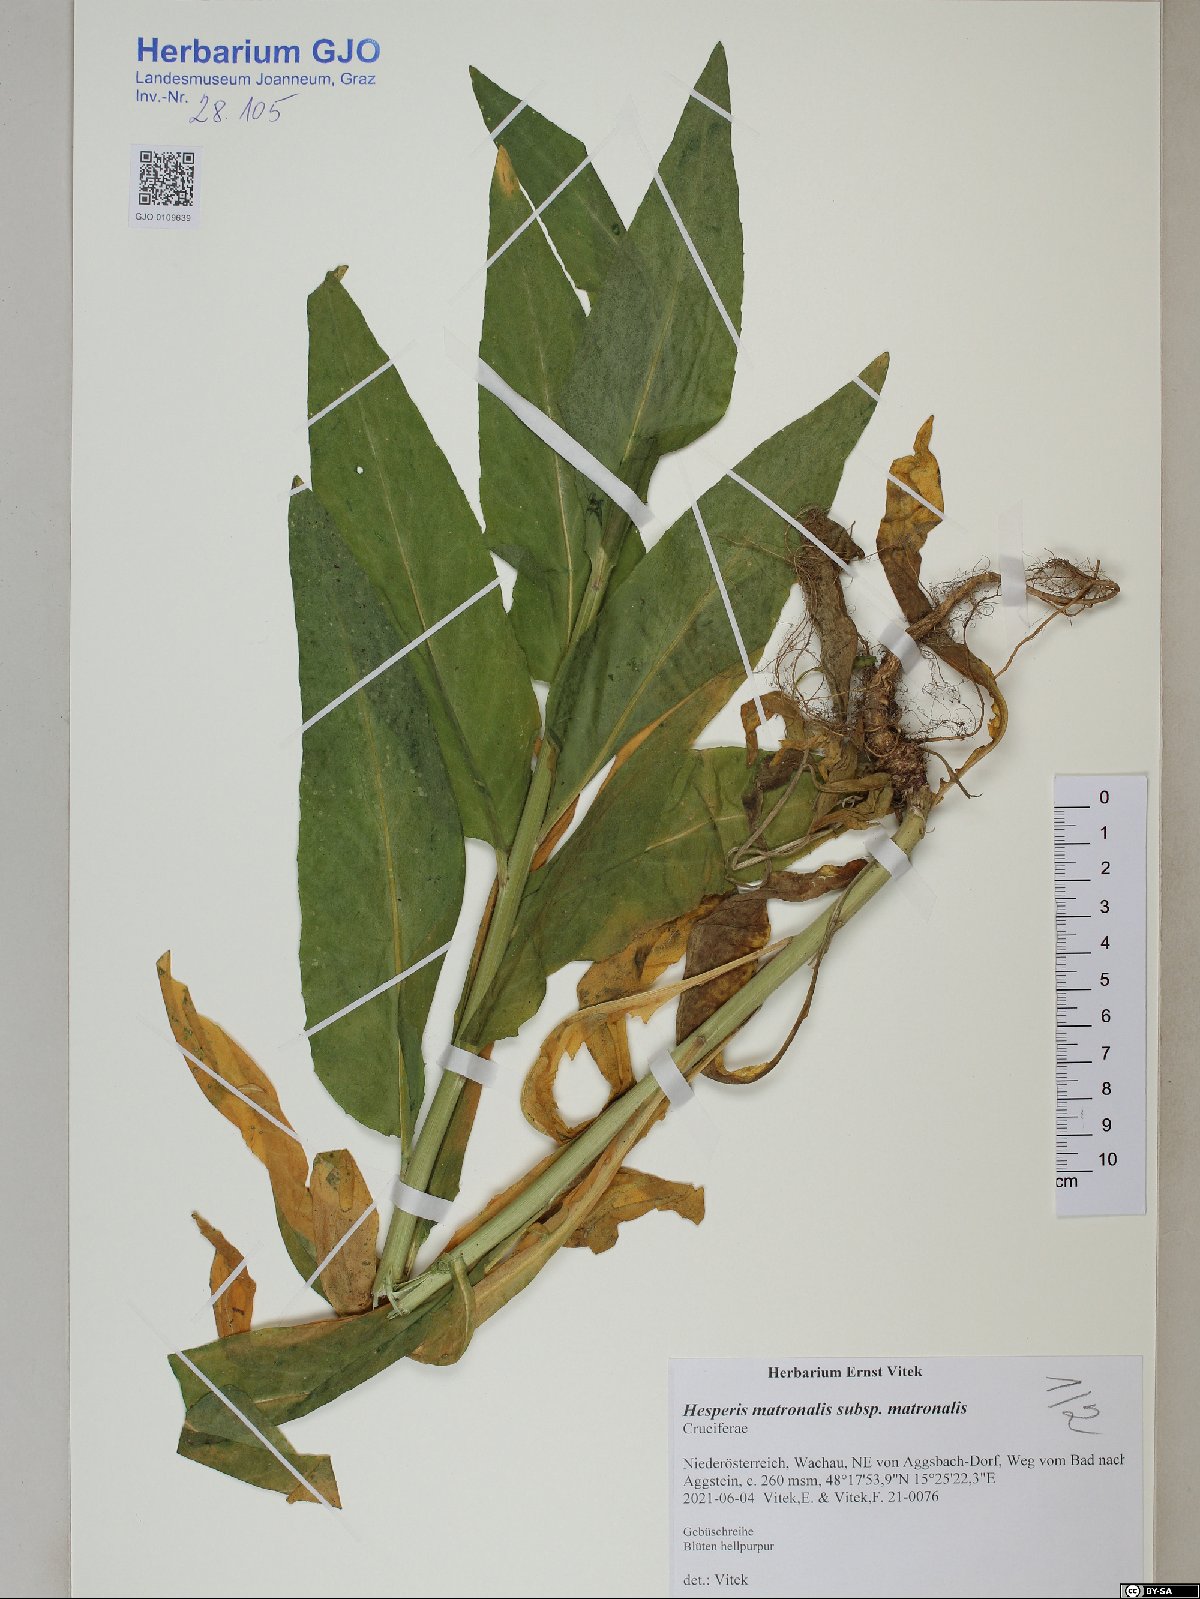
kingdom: Plantae
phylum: Tracheophyta
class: Magnoliopsida
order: Brassicales
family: Brassicaceae
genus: Hesperis
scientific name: Hesperis matronalis
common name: Dame's-violet
